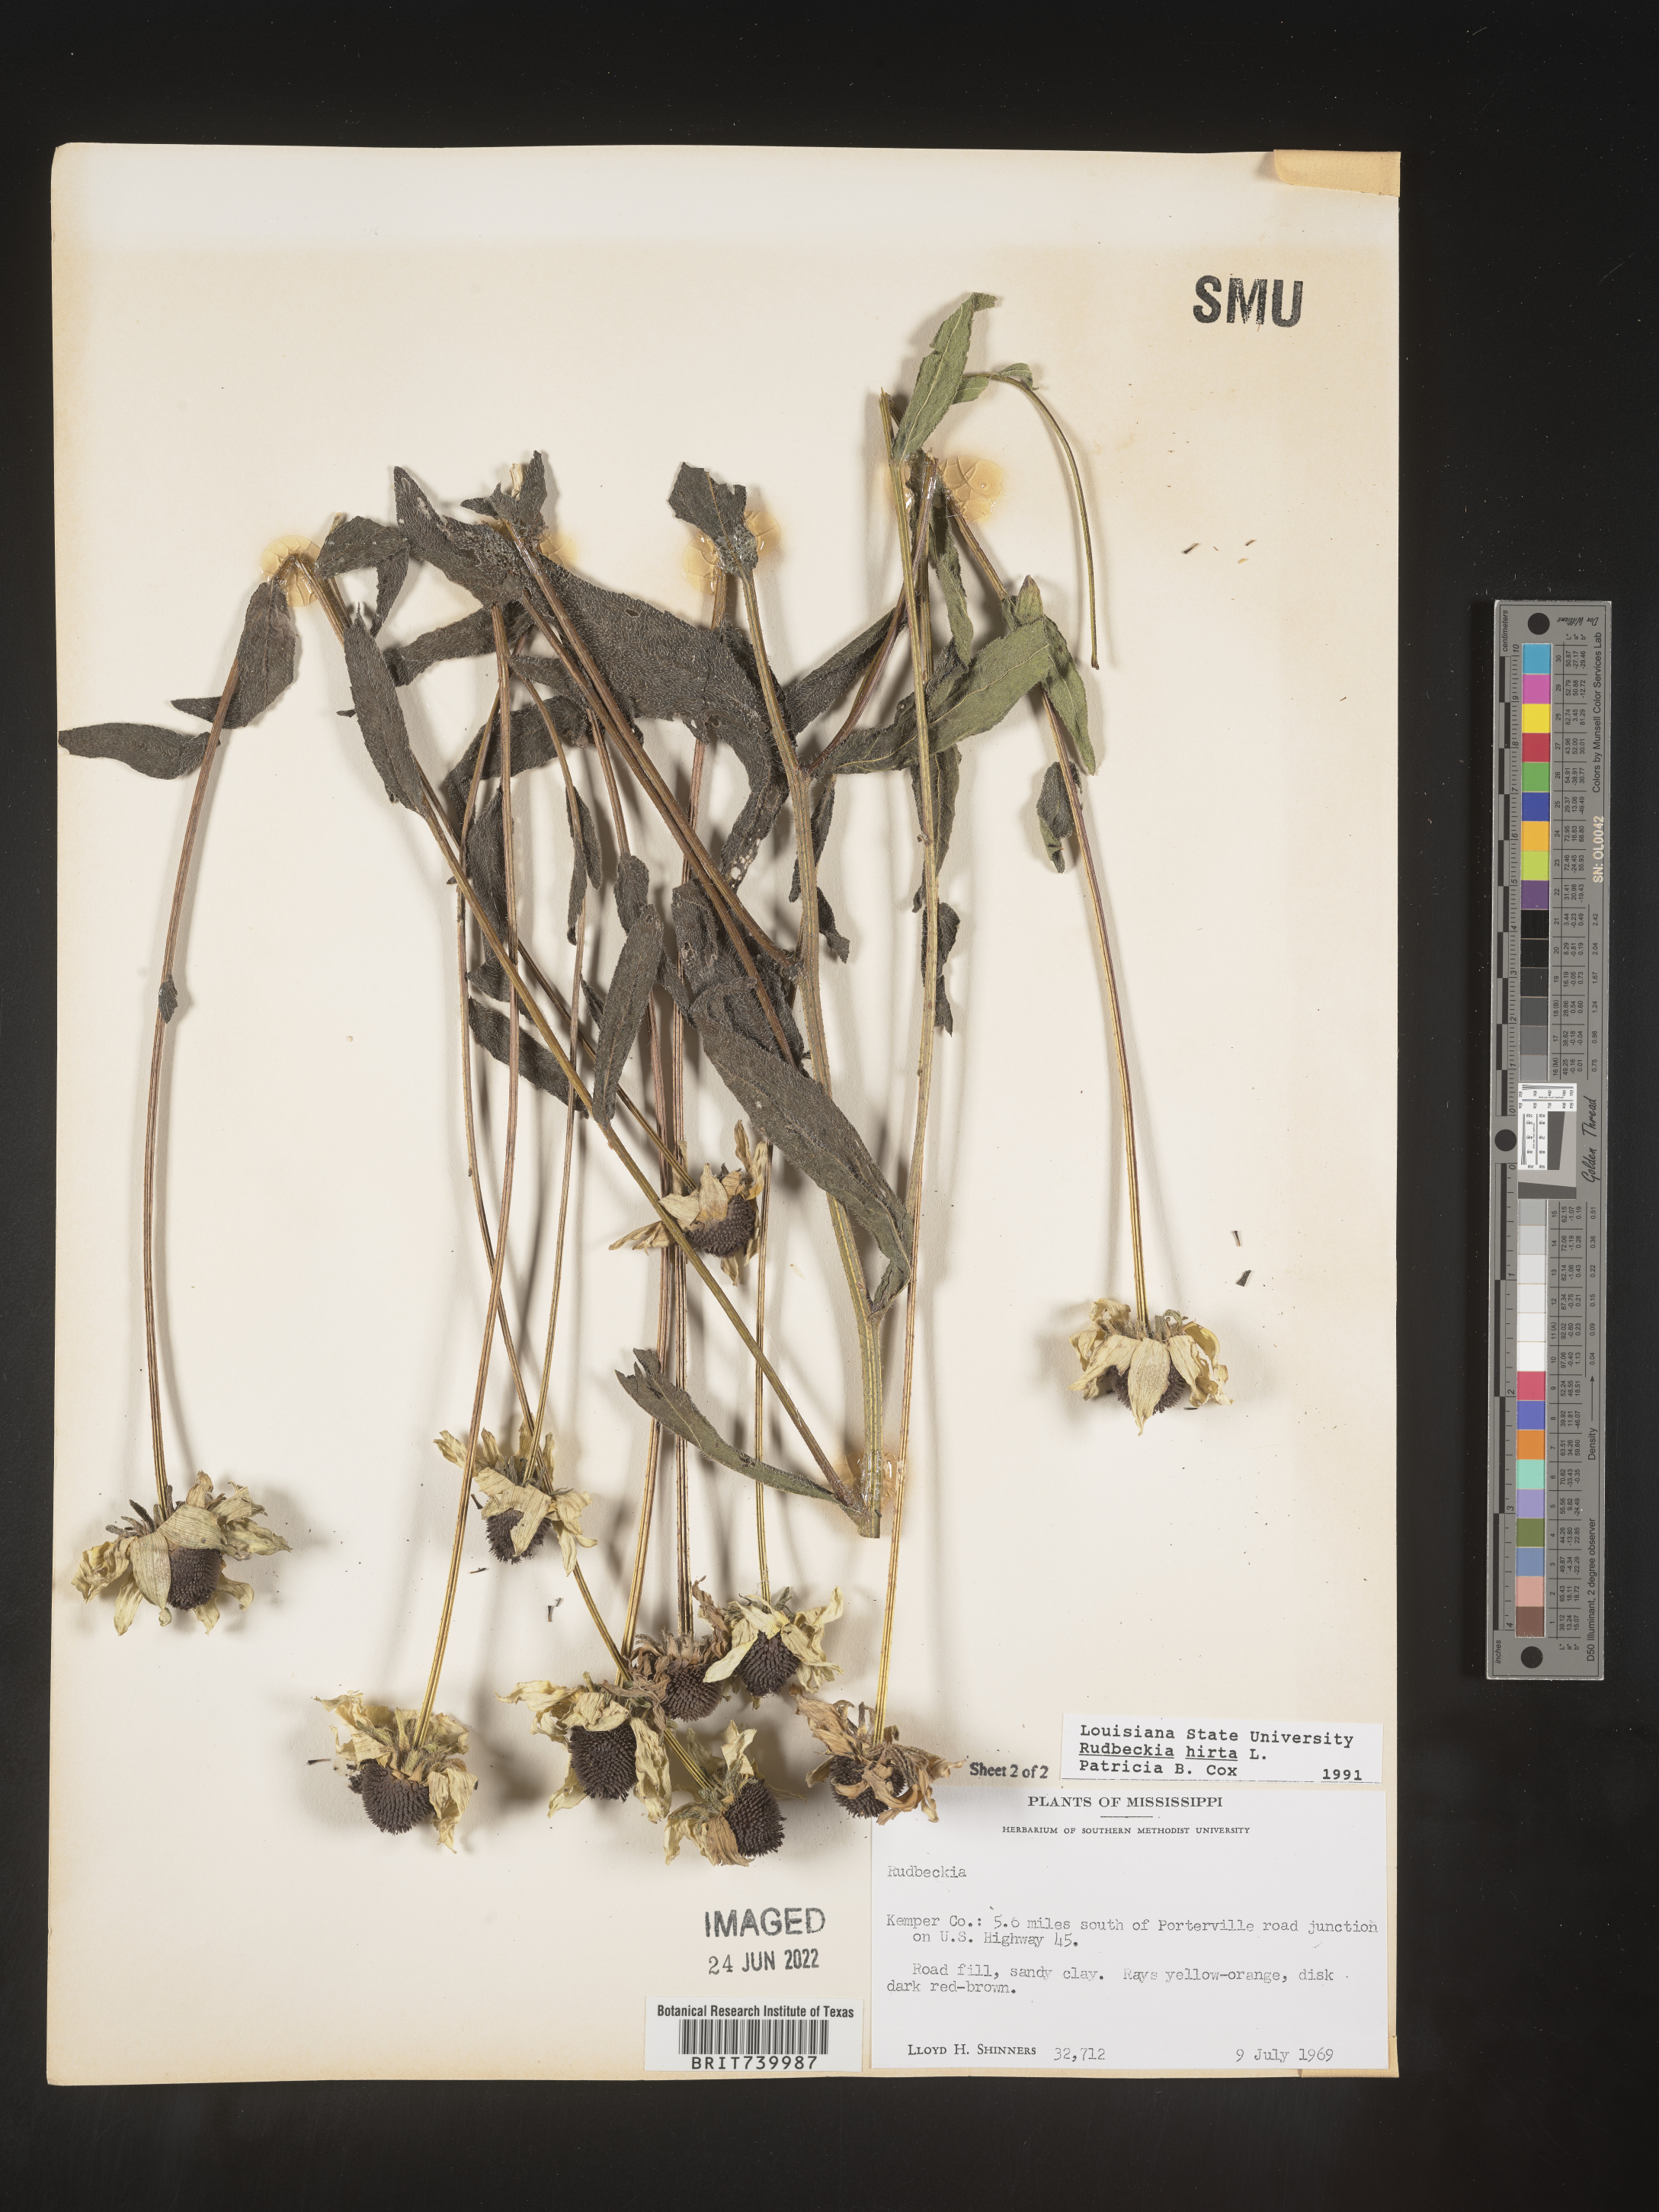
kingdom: Plantae
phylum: Tracheophyta
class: Magnoliopsida
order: Asterales
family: Asteraceae
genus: Rudbeckia
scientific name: Rudbeckia hirta
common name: Black-eyed-susan
